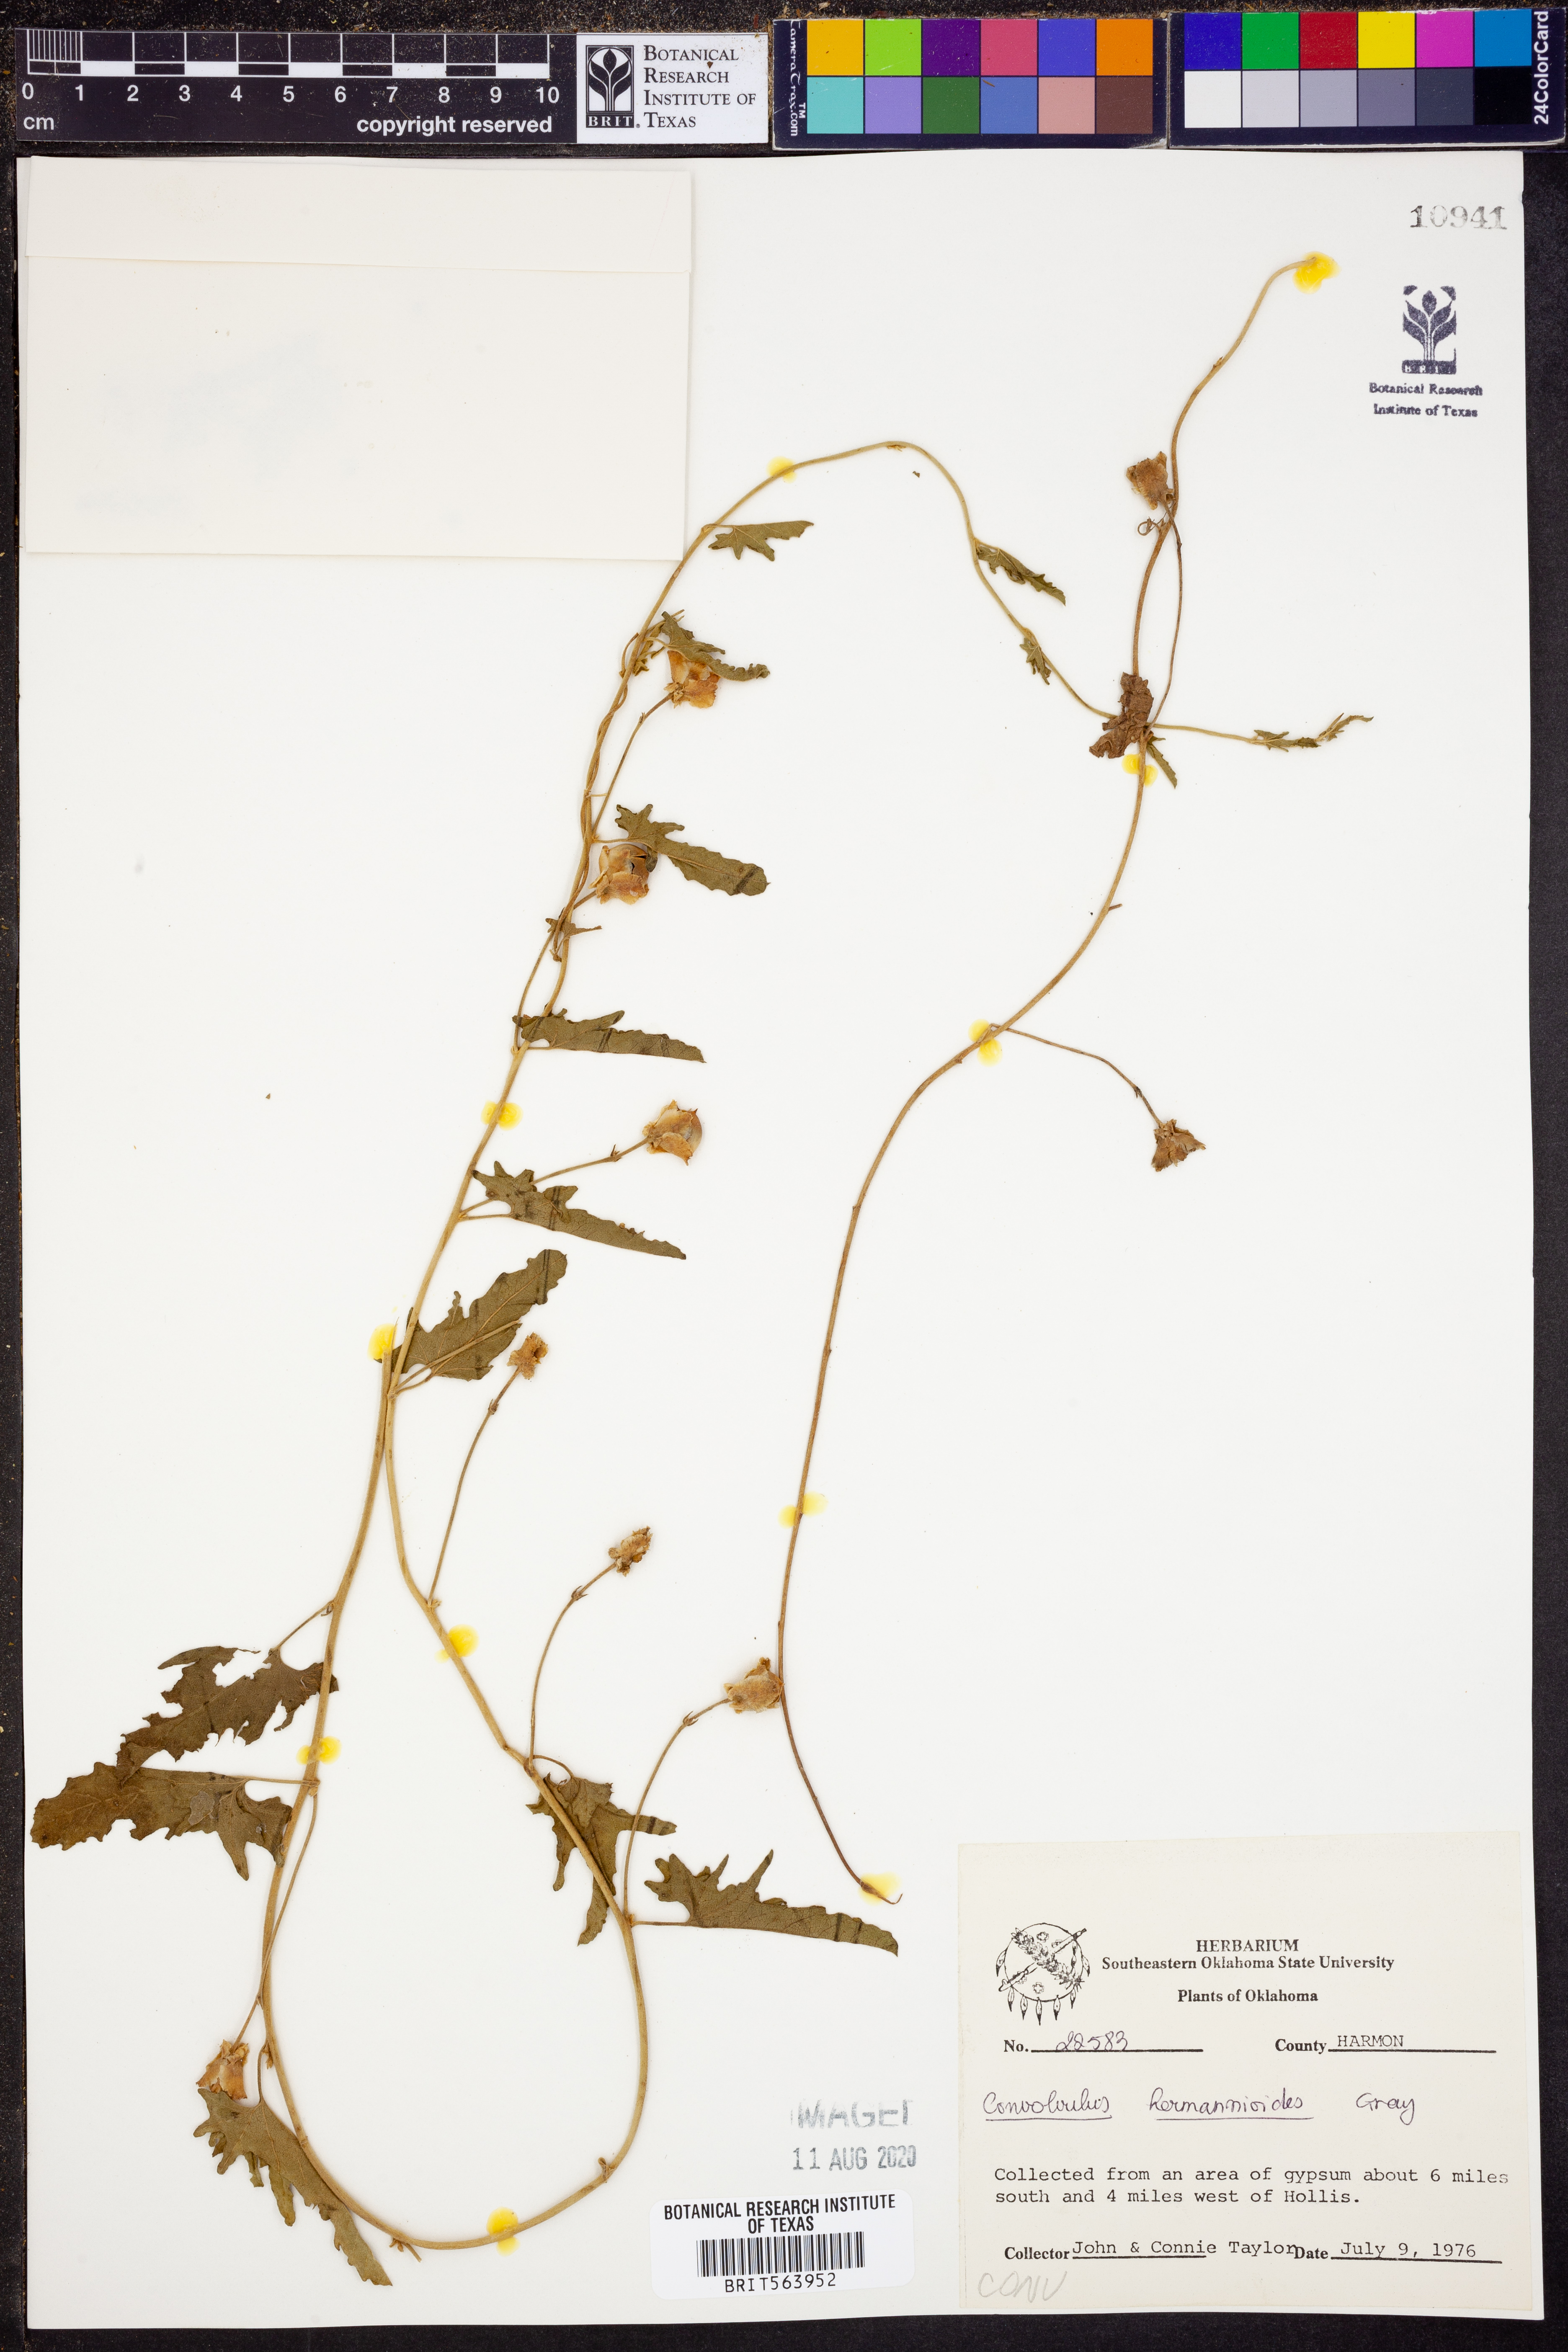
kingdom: Plantae
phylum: Tracheophyta
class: Magnoliopsida
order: Solanales
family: Convolvulaceae
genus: Convolvulus
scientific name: Convolvulus equitans
